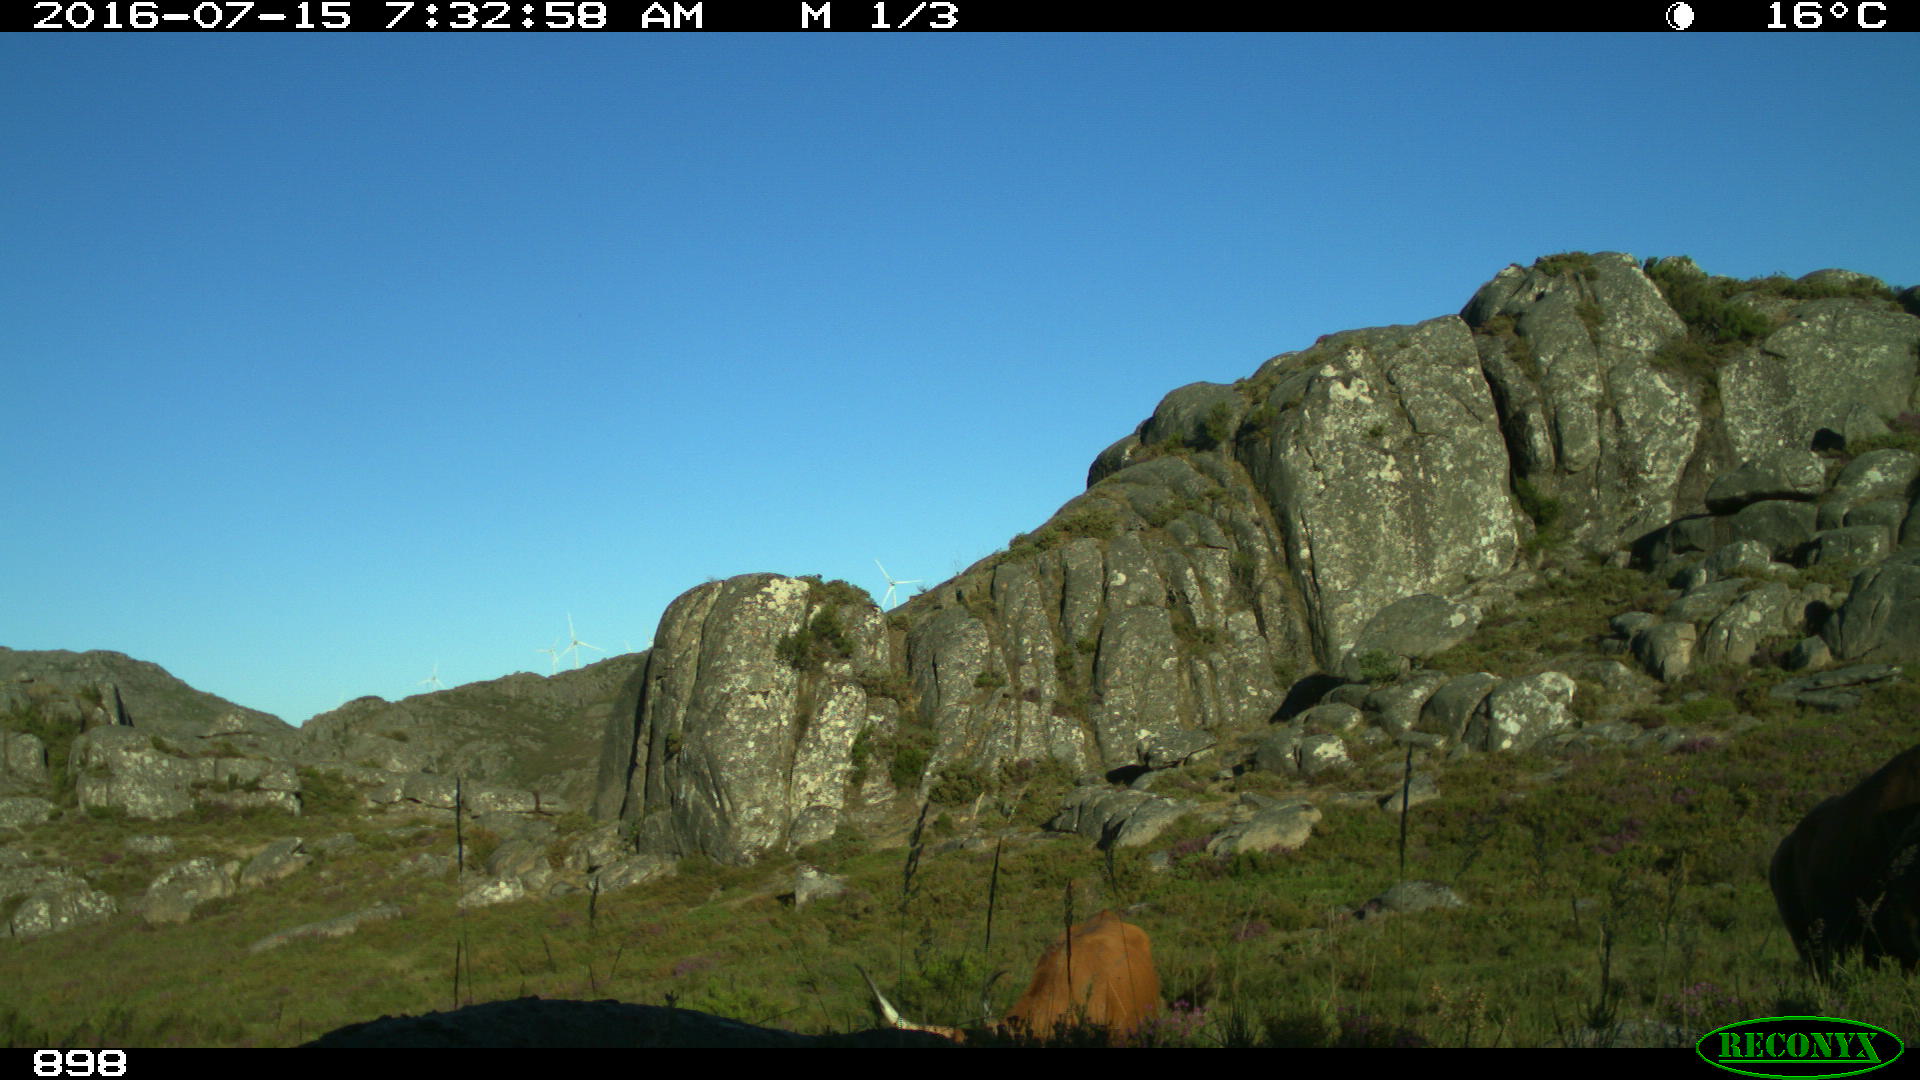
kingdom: Animalia
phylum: Chordata
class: Mammalia
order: Artiodactyla
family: Bovidae
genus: Bos
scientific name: Bos taurus
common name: Domesticated cattle
